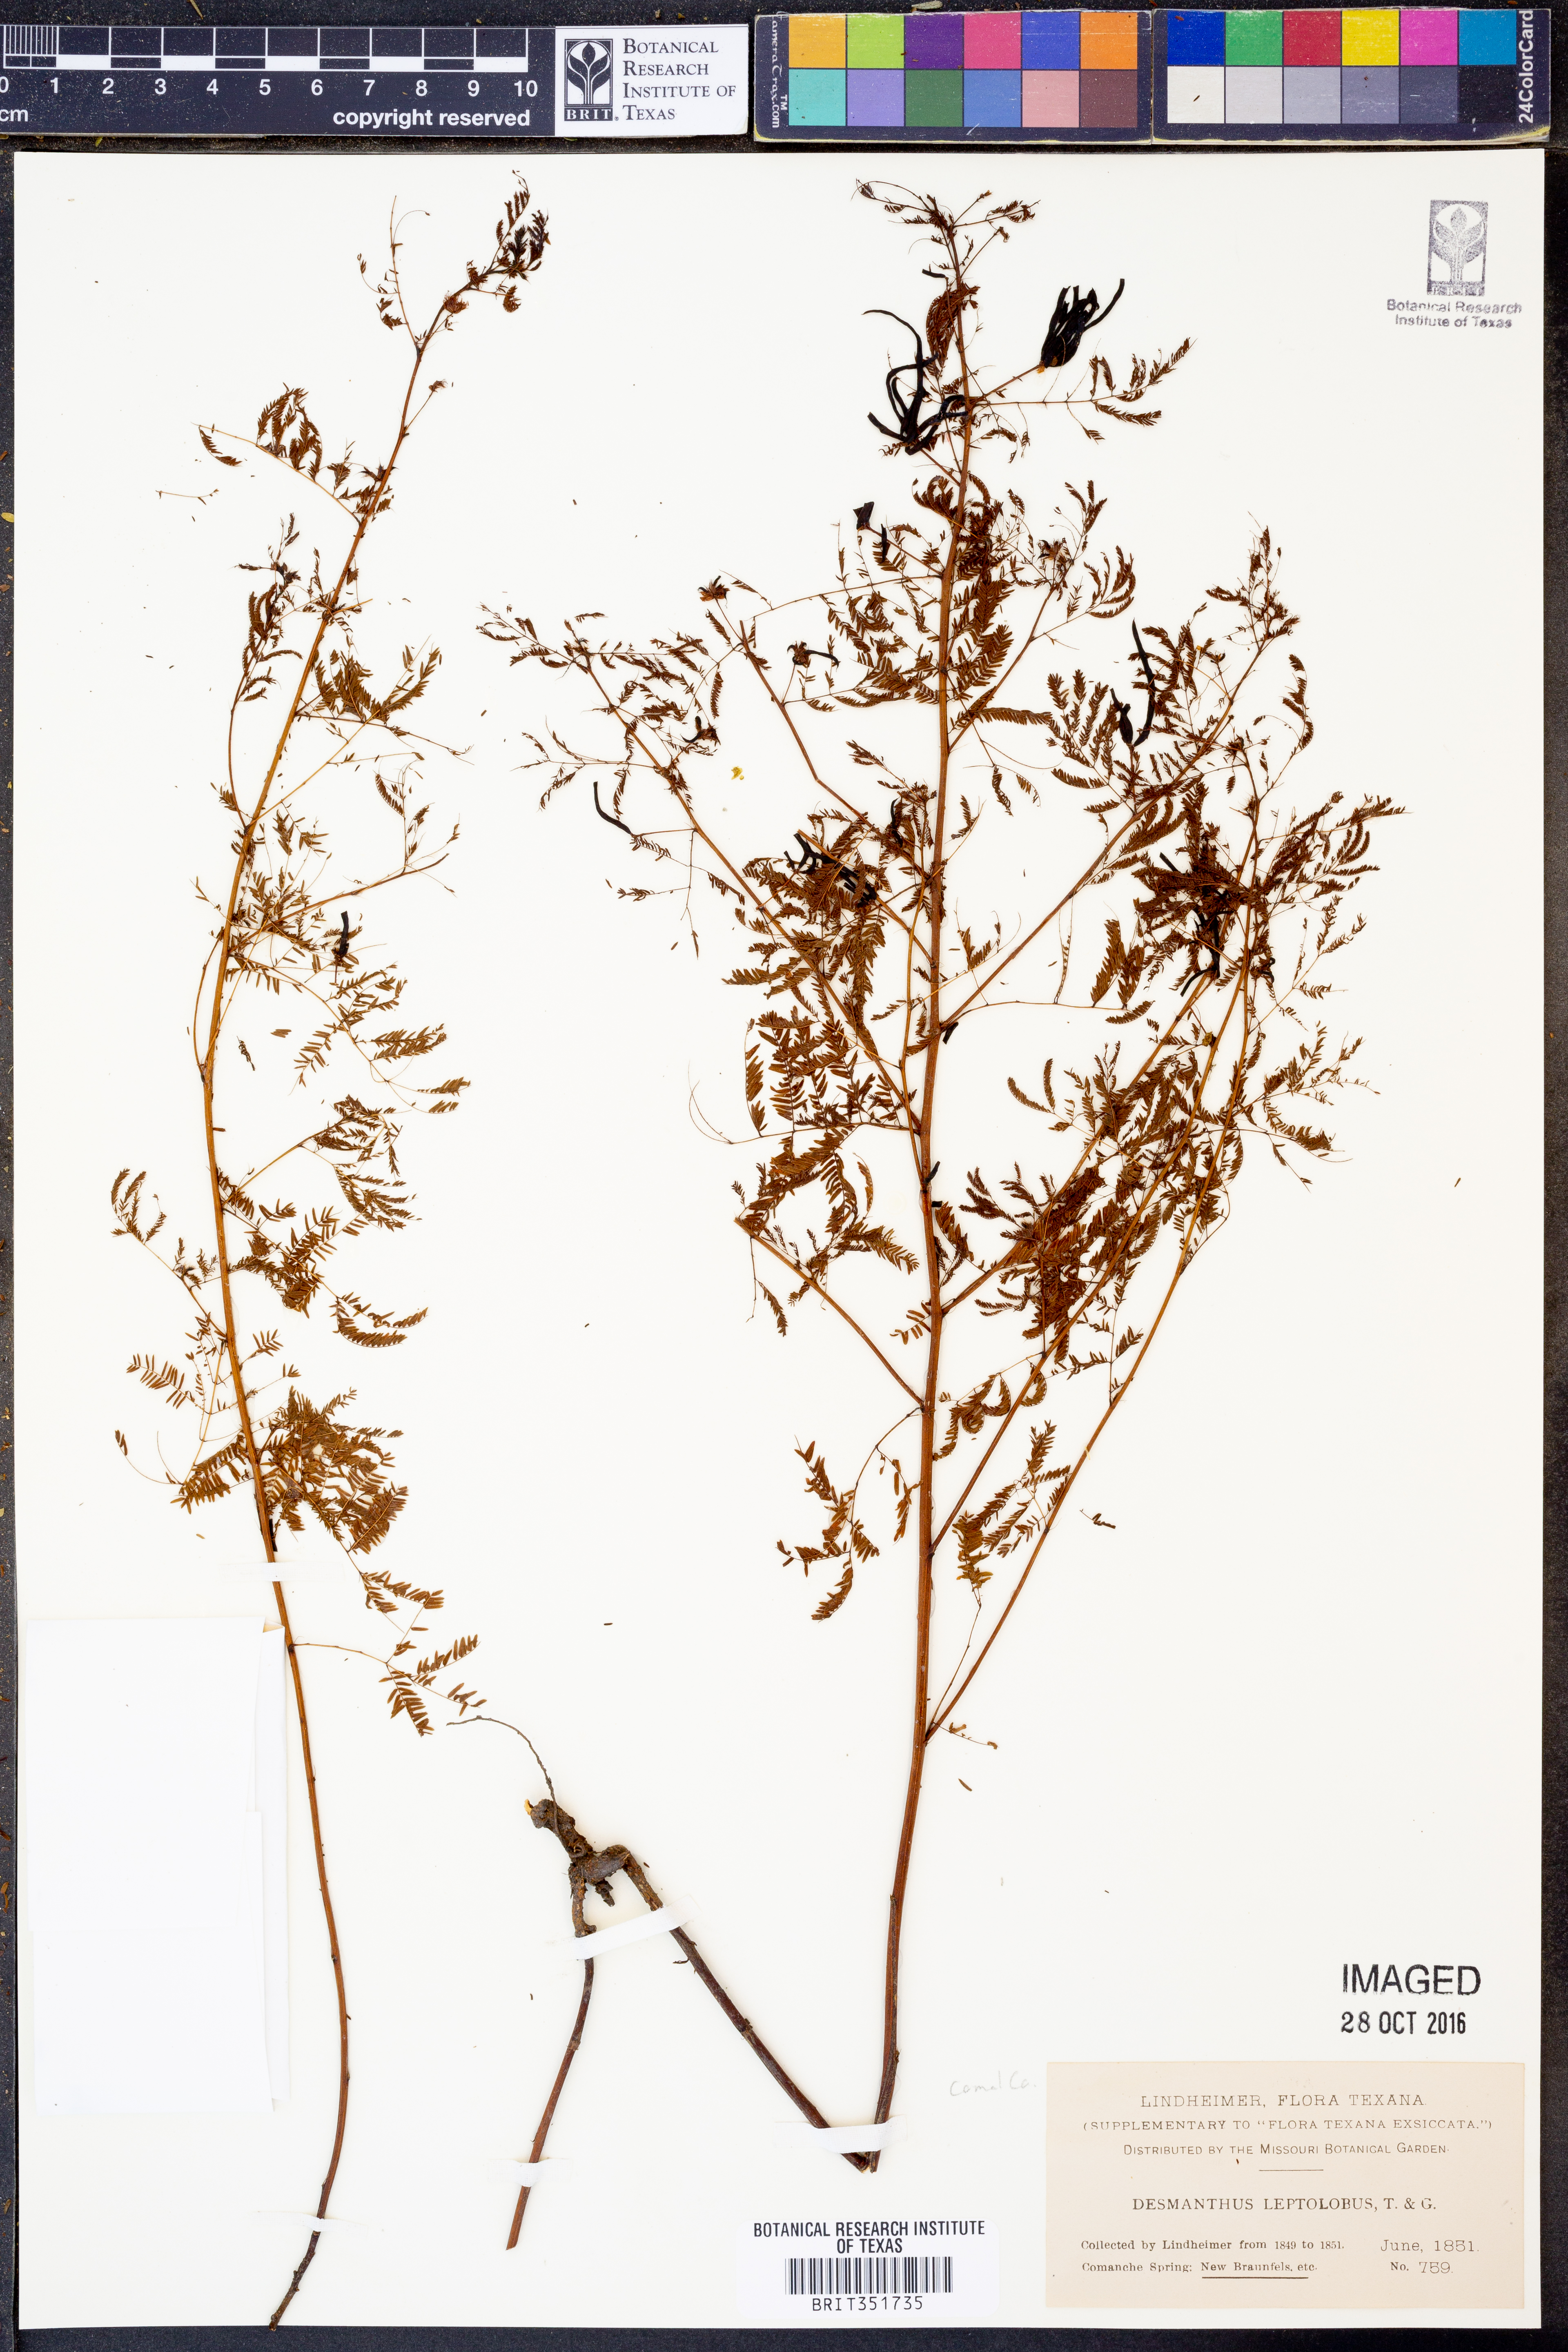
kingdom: Plantae
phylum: Tracheophyta
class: Magnoliopsida
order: Fabales
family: Fabaceae
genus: Desmanthus
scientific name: Desmanthus leptolobus
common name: Prairie-mimosa
